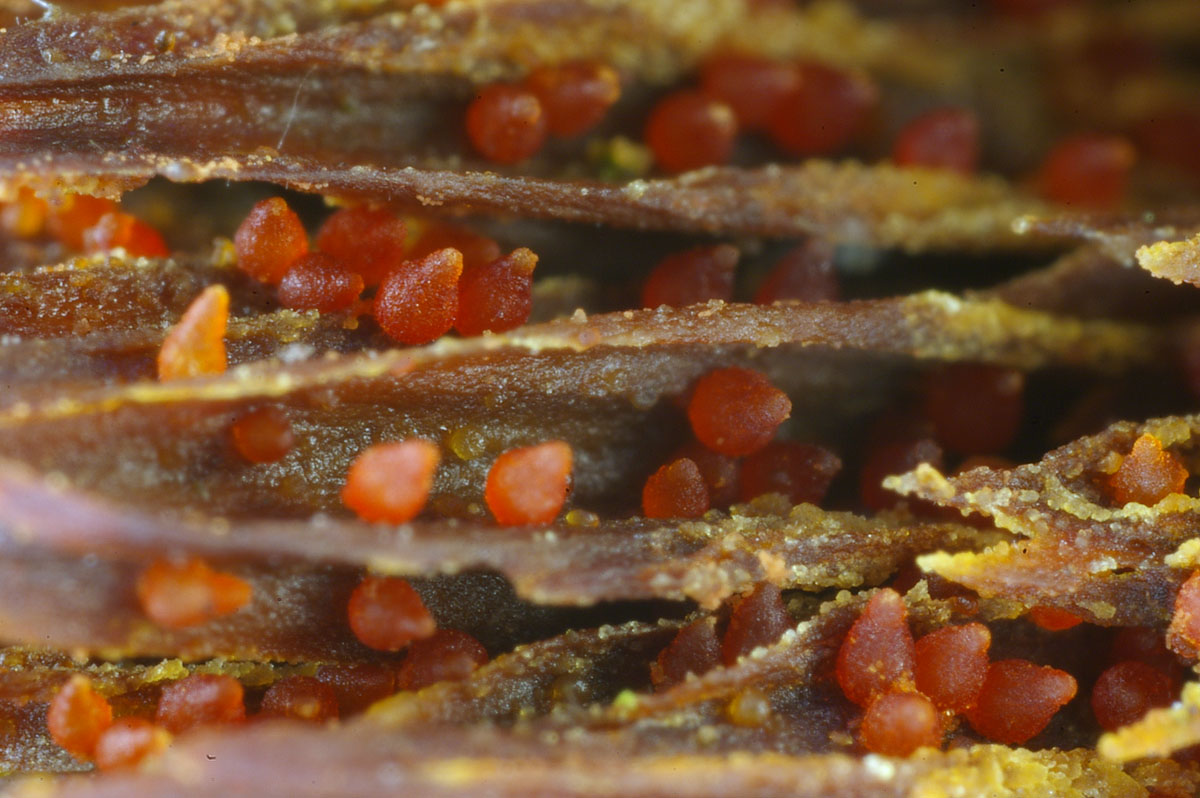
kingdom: Fungi
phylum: Ascomycota
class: Sordariomycetes
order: Hypocreales
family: Nectriaceae
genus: Cosmospora
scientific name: Cosmospora coccinea
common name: spejlpore-cinnobersvamp
